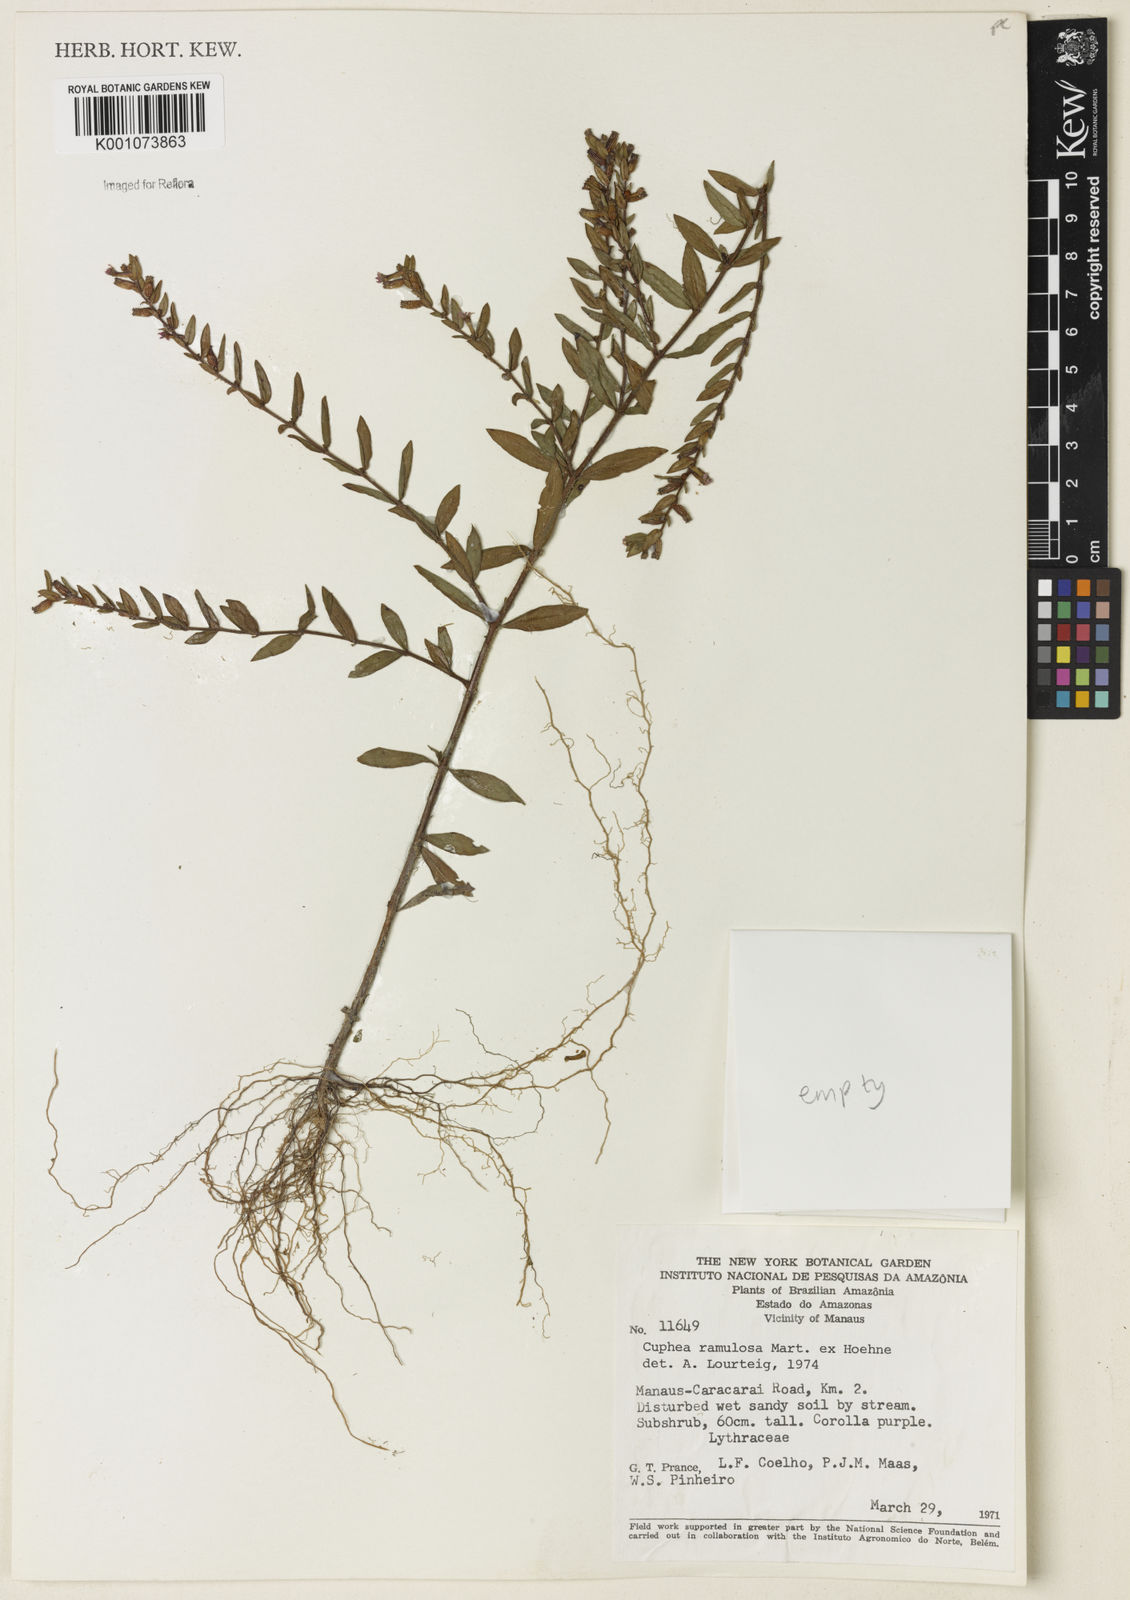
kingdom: Plantae
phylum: Tracheophyta
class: Magnoliopsida
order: Myrtales
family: Lythraceae
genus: Cuphea
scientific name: Cuphea antisyphilitica
